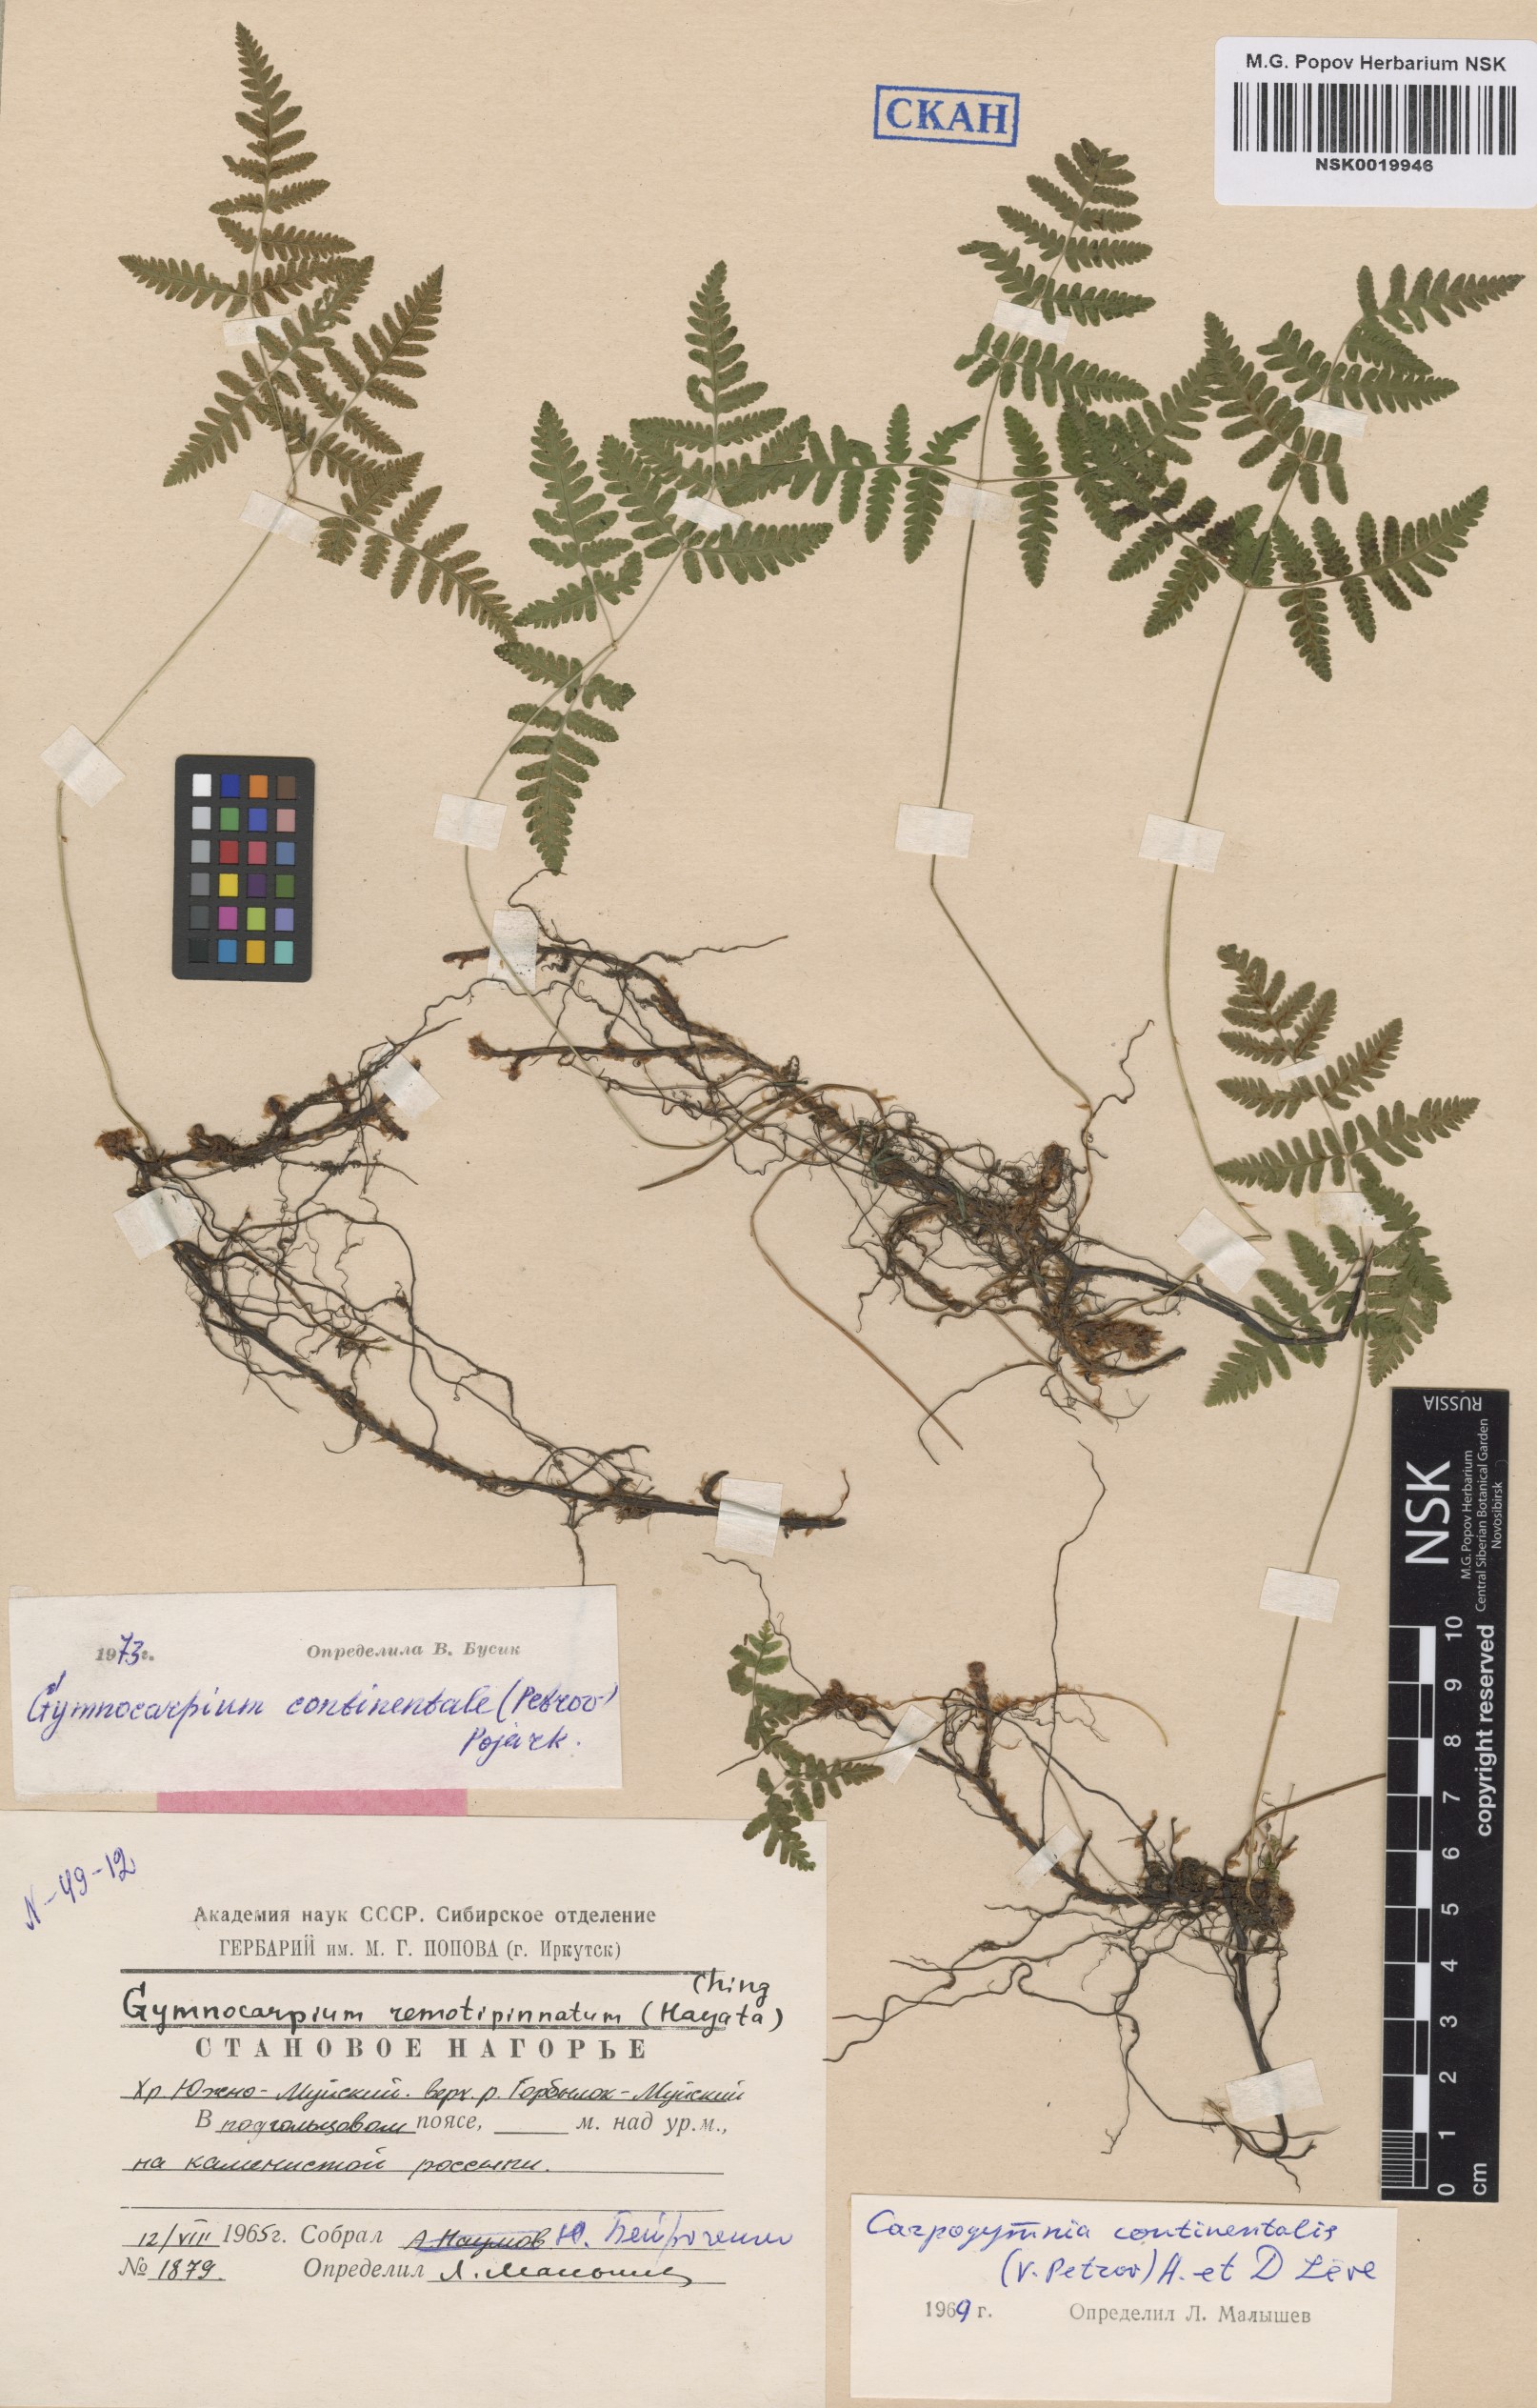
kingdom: Plantae
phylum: Tracheophyta
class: Polypodiopsida
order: Polypodiales
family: Cystopteridaceae
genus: Gymnocarpium
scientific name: Gymnocarpium continentale
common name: Asian oak fern
